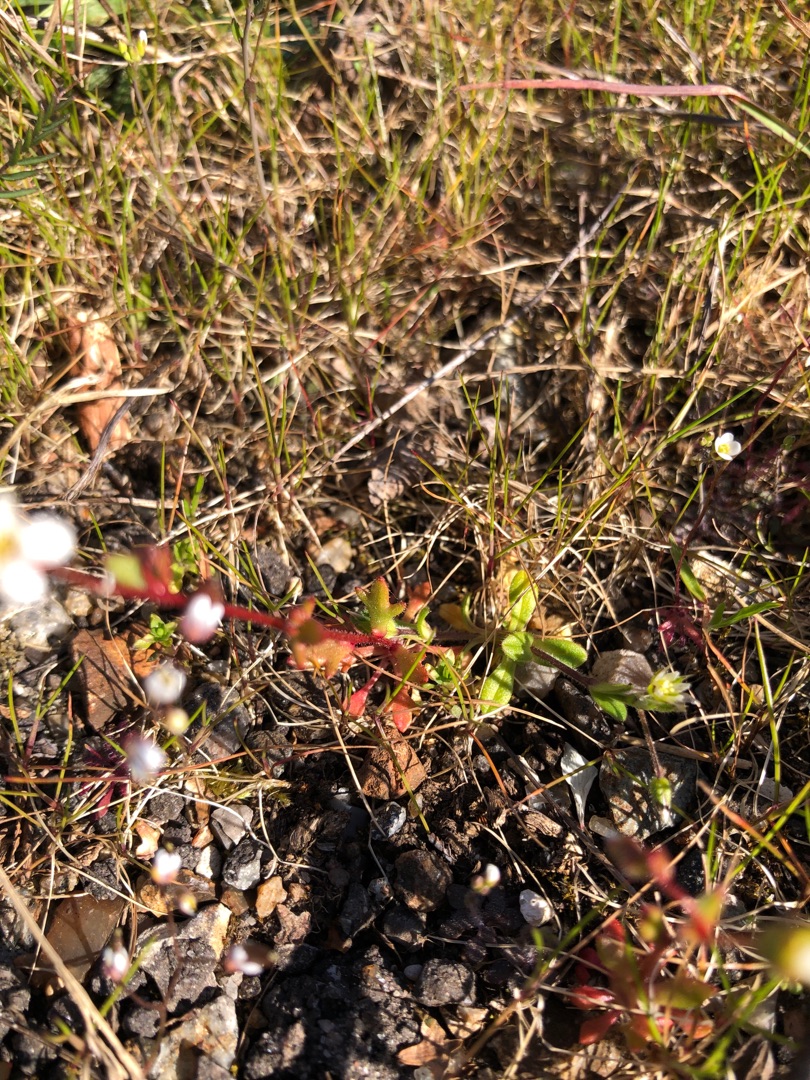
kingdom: Plantae
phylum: Tracheophyta
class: Magnoliopsida
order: Saxifragales
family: Saxifragaceae
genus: Saxifraga
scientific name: Saxifraga tridactylites
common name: Trekløft-stenbræk
